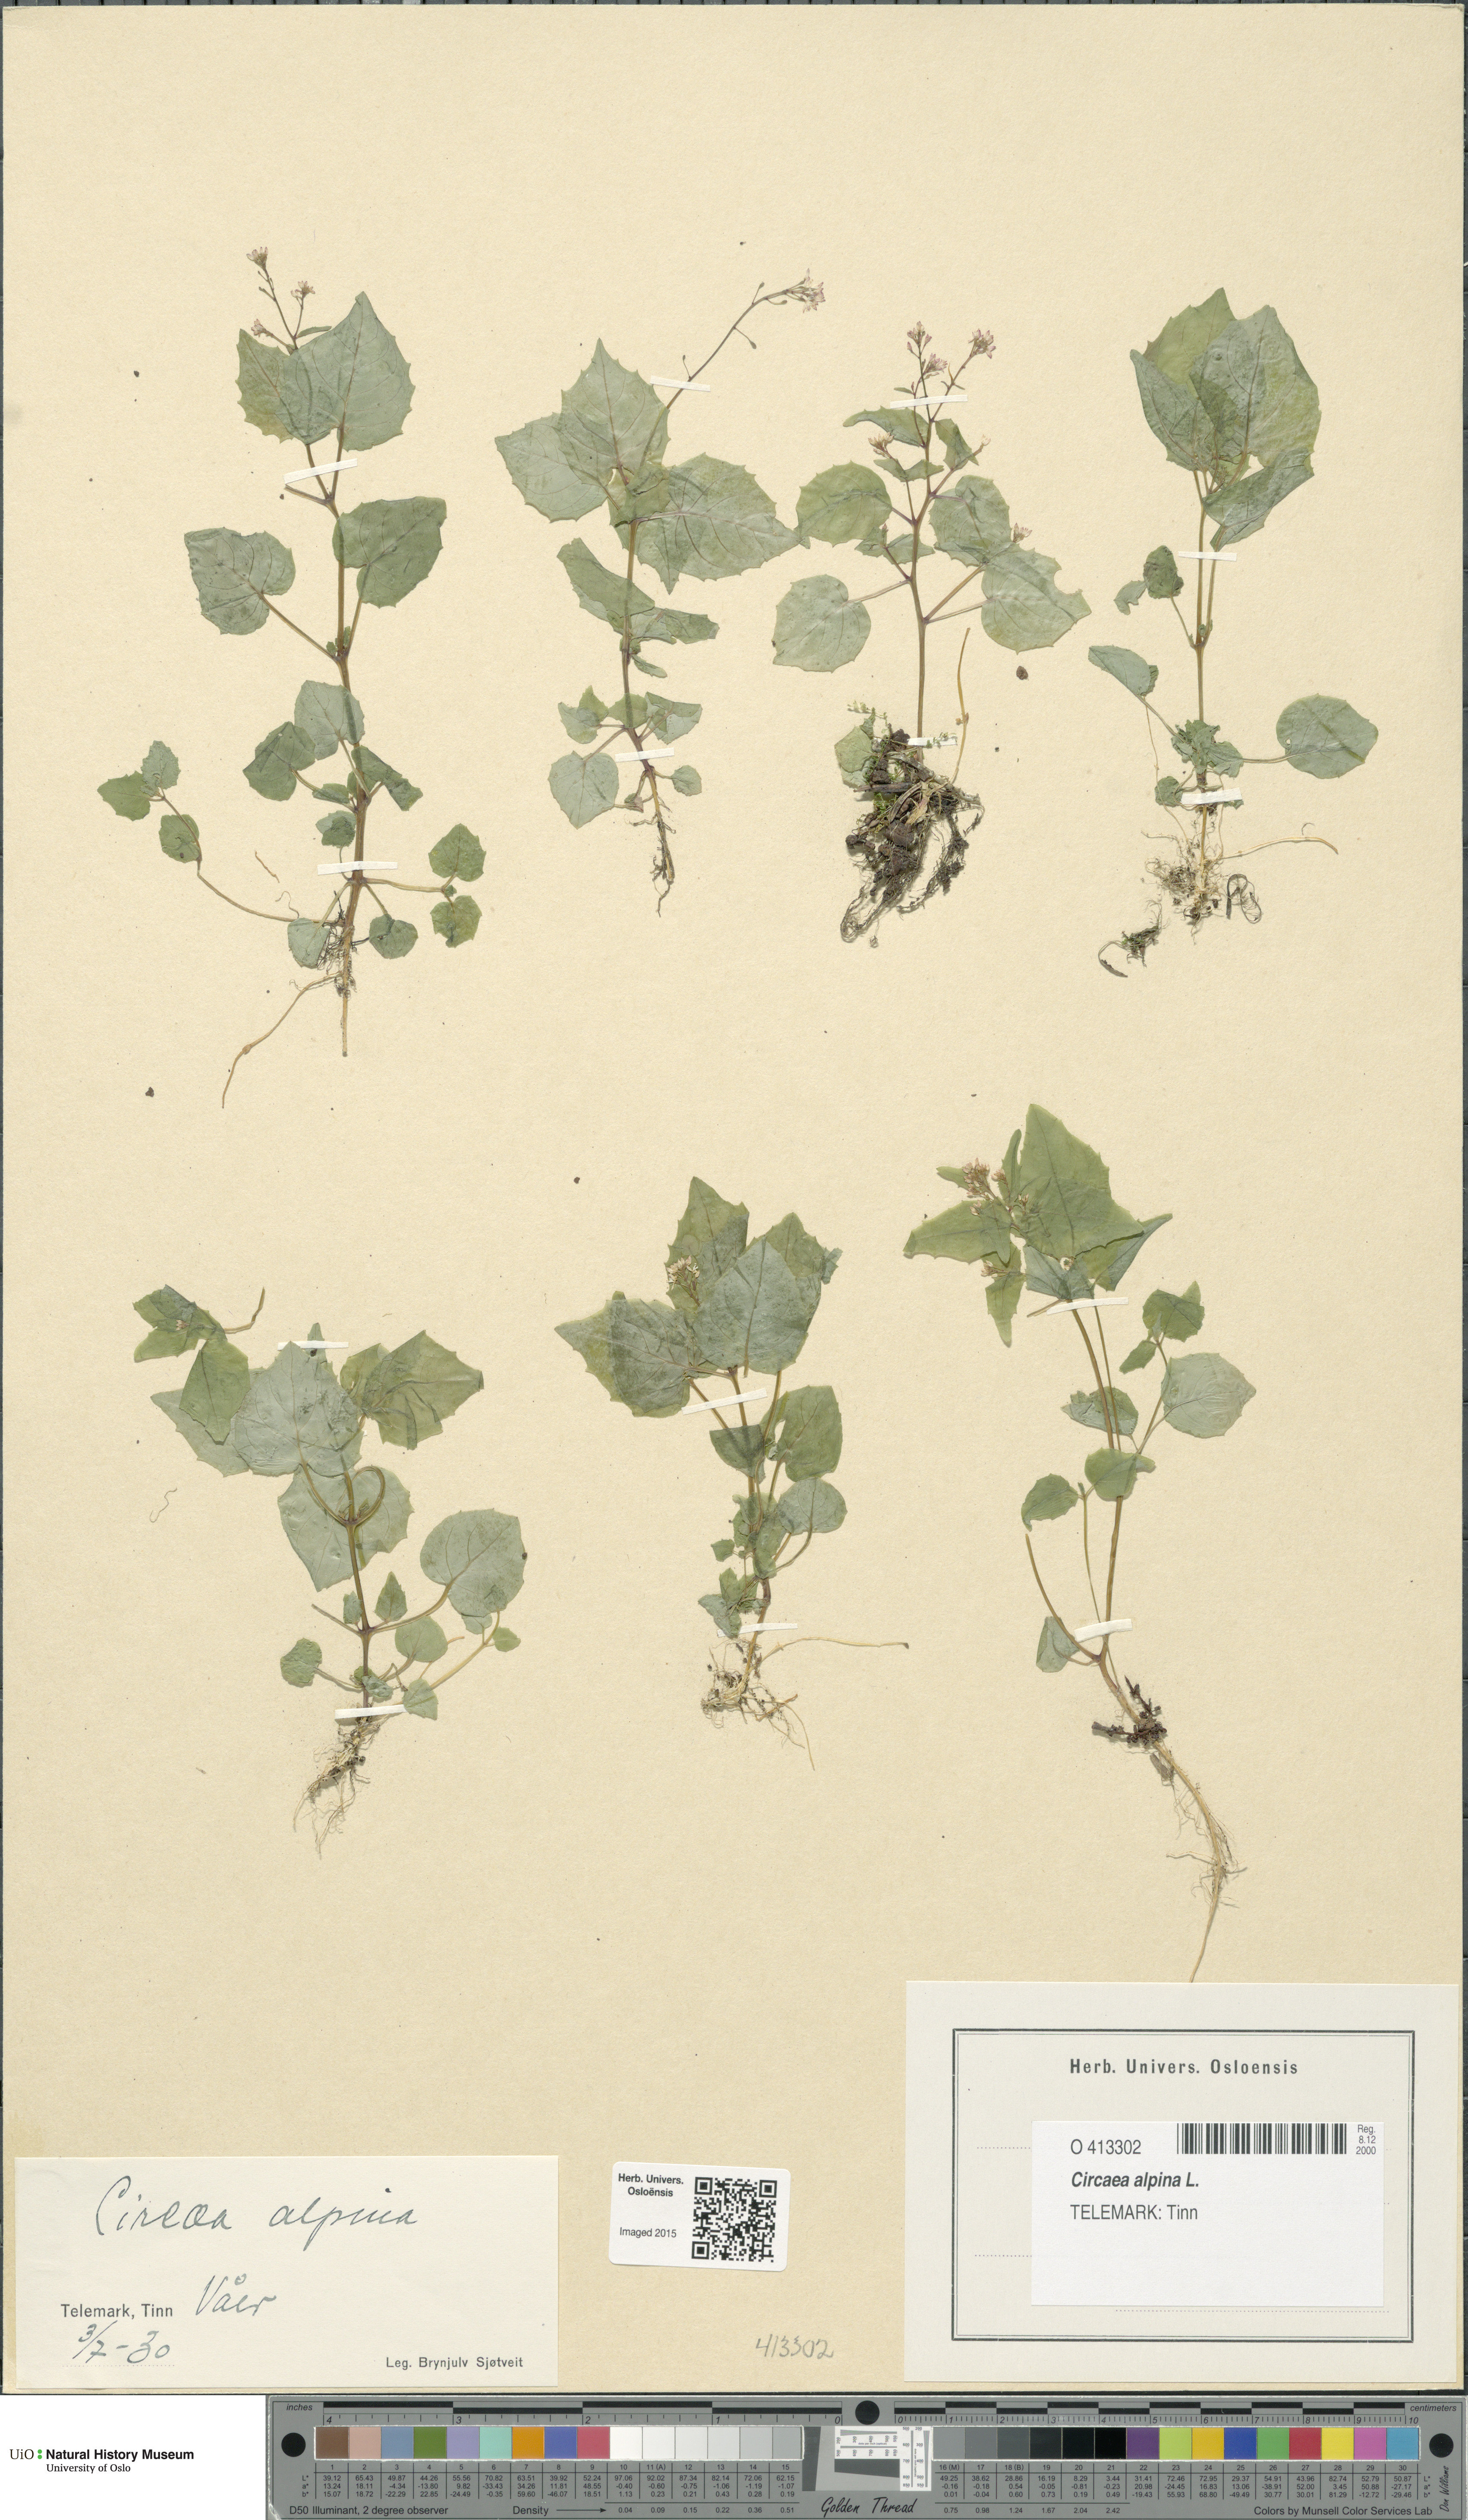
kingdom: Plantae
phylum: Tracheophyta
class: Magnoliopsida
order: Myrtales
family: Onagraceae
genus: Circaea
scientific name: Circaea alpina
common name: Alpine enchanter's-nightshade
